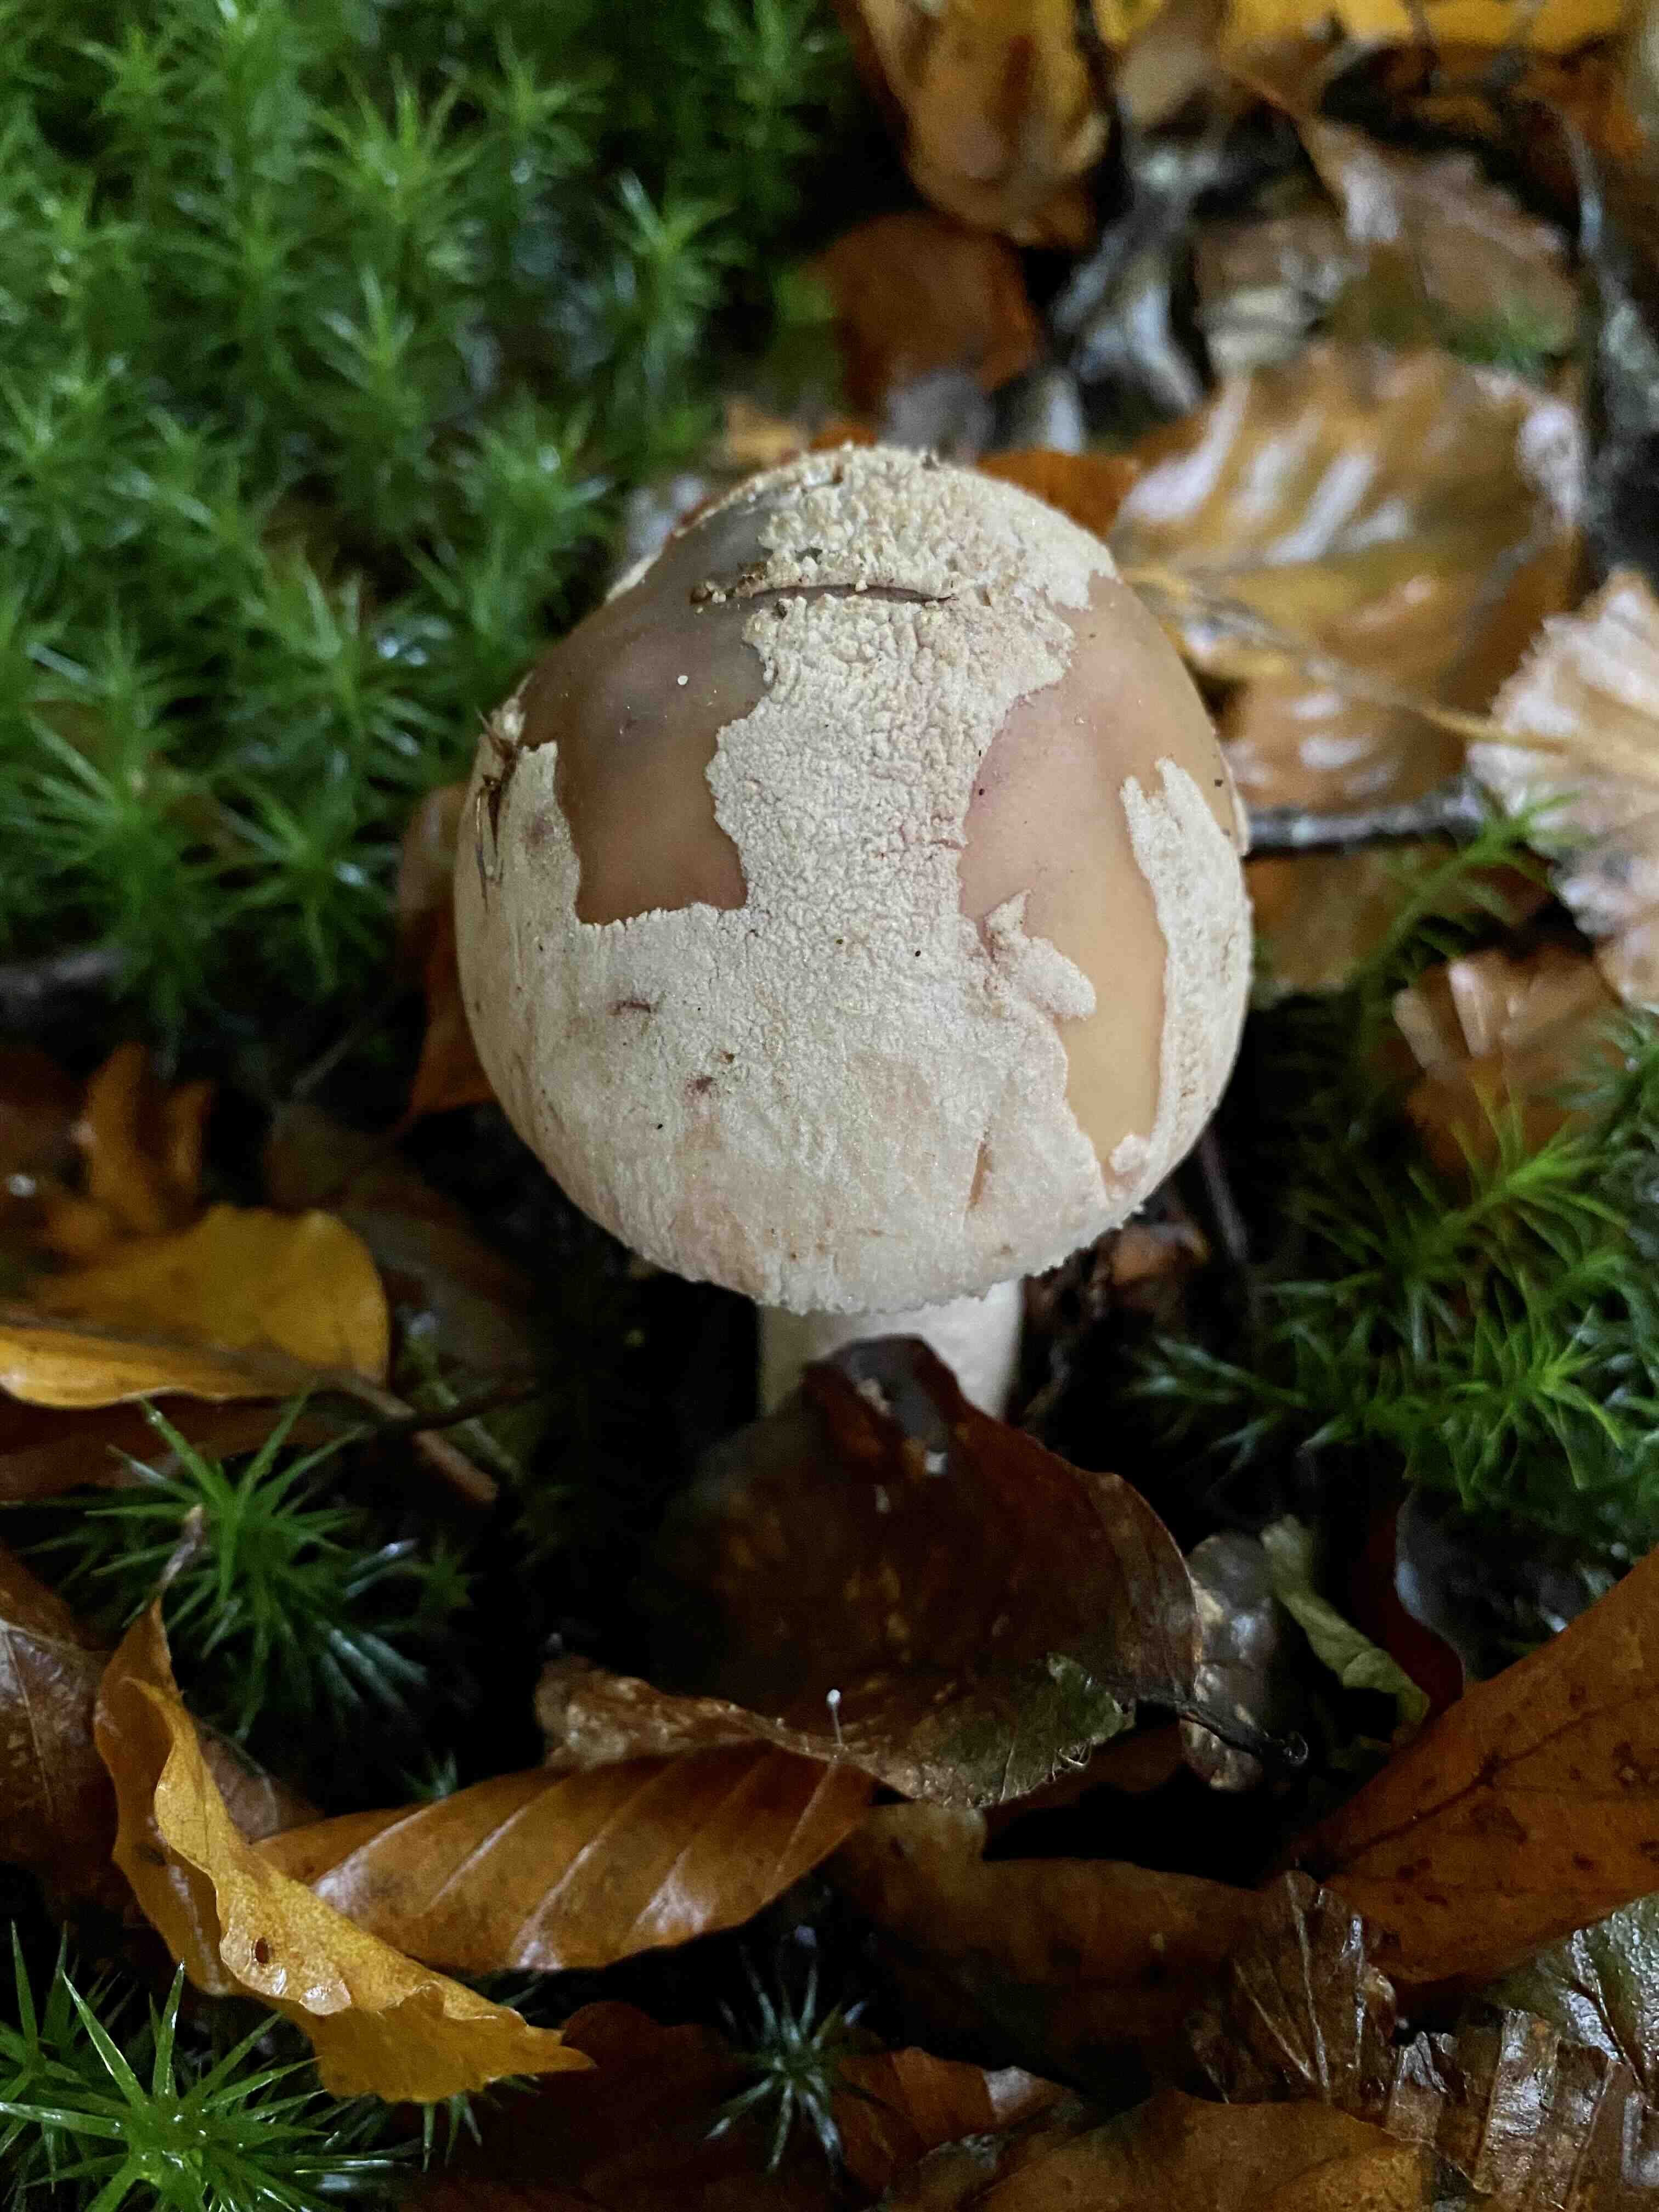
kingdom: Fungi
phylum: Basidiomycota
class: Agaricomycetes
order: Agaricales
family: Amanitaceae
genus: Amanita
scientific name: Amanita rubescens
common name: rødmende fluesvamp
